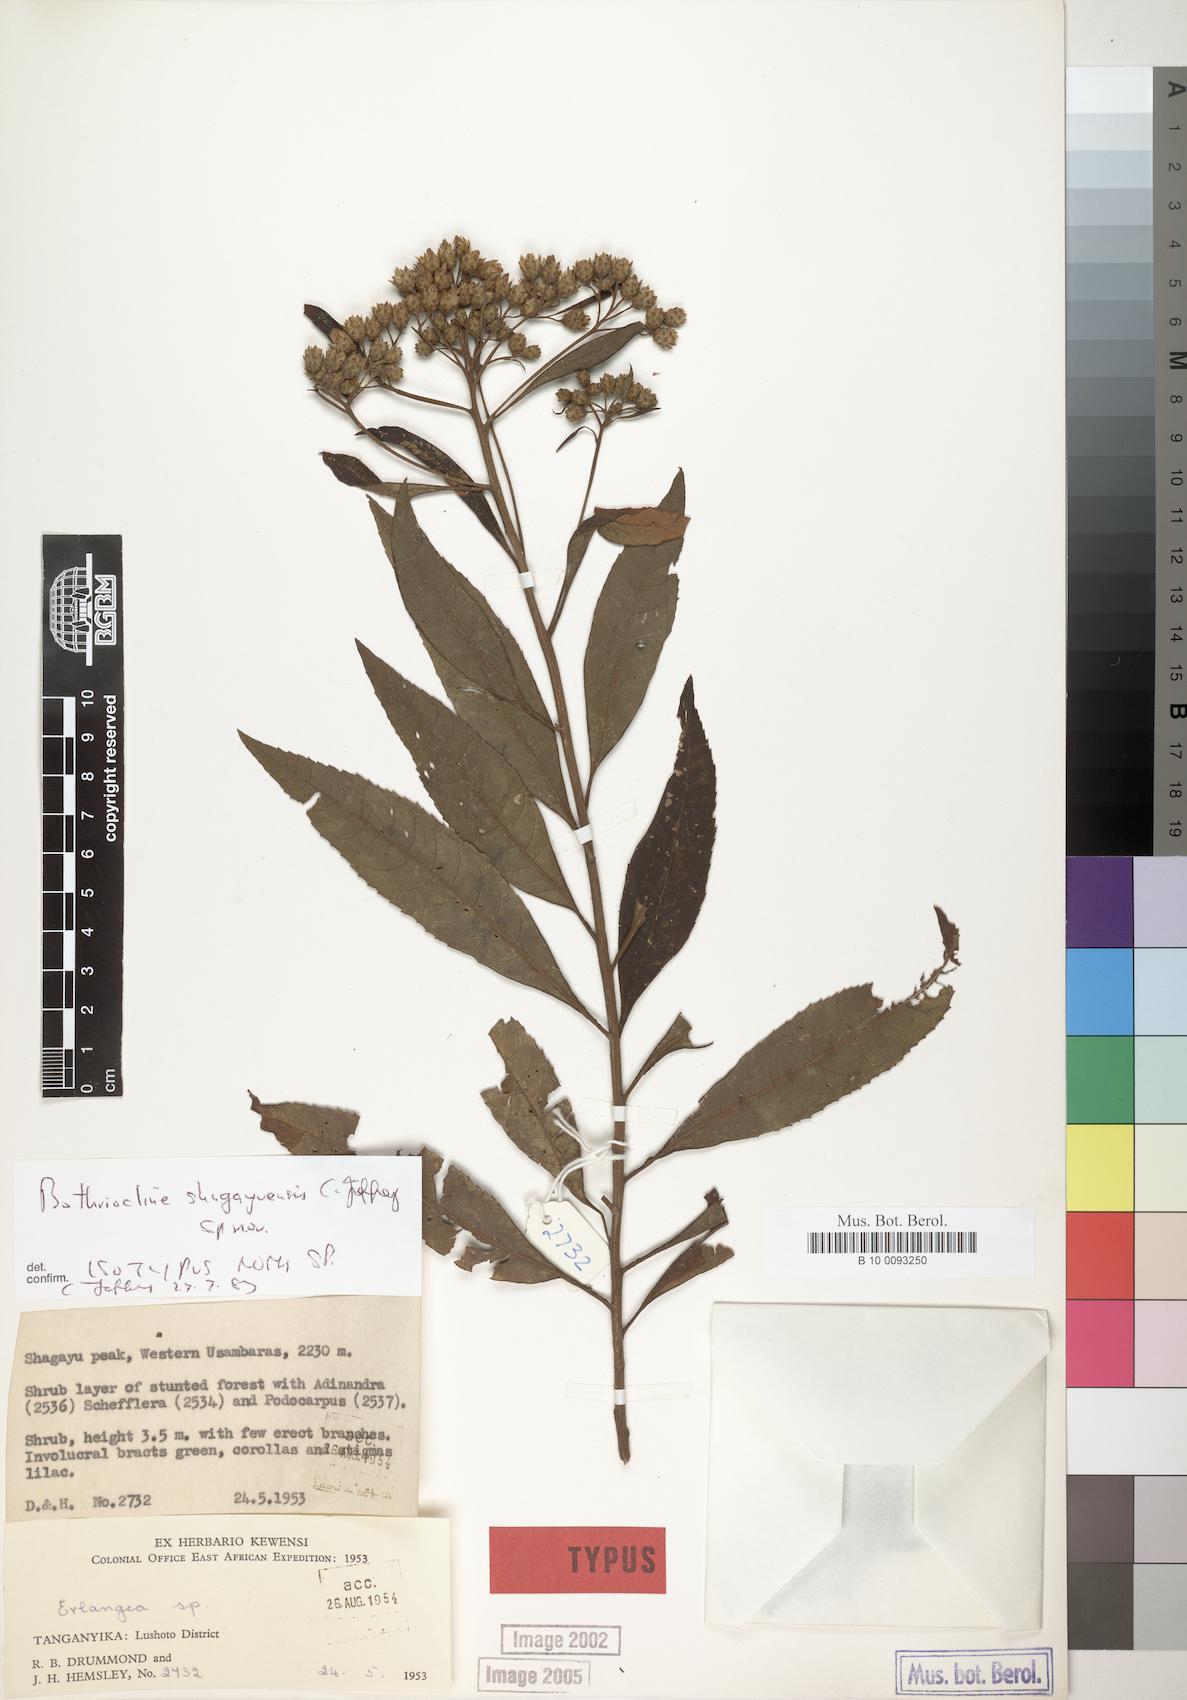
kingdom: Plantae
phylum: Tracheophyta
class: Magnoliopsida
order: Asterales
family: Asteraceae
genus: Bothriocline
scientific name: Bothriocline shagayuensis
